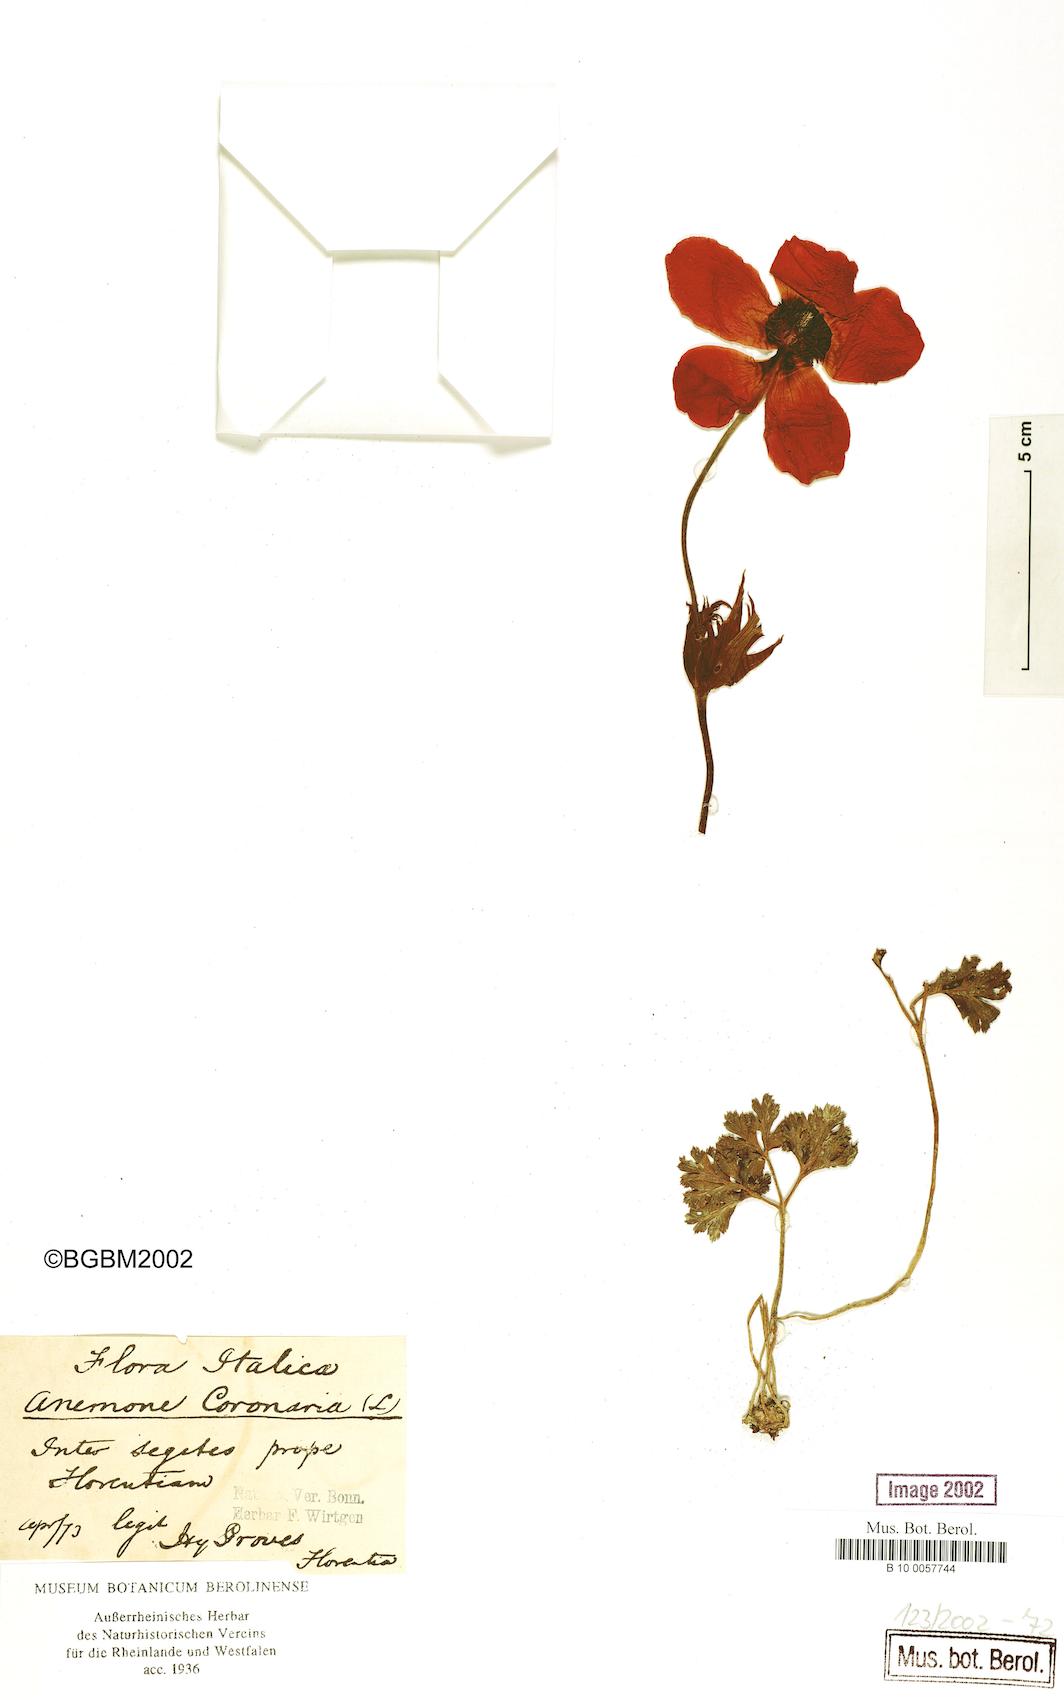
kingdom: Plantae
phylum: Tracheophyta
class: Magnoliopsida
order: Ranunculales
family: Ranunculaceae
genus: Anemone
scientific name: Anemone coronaria
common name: Poppy anemone
